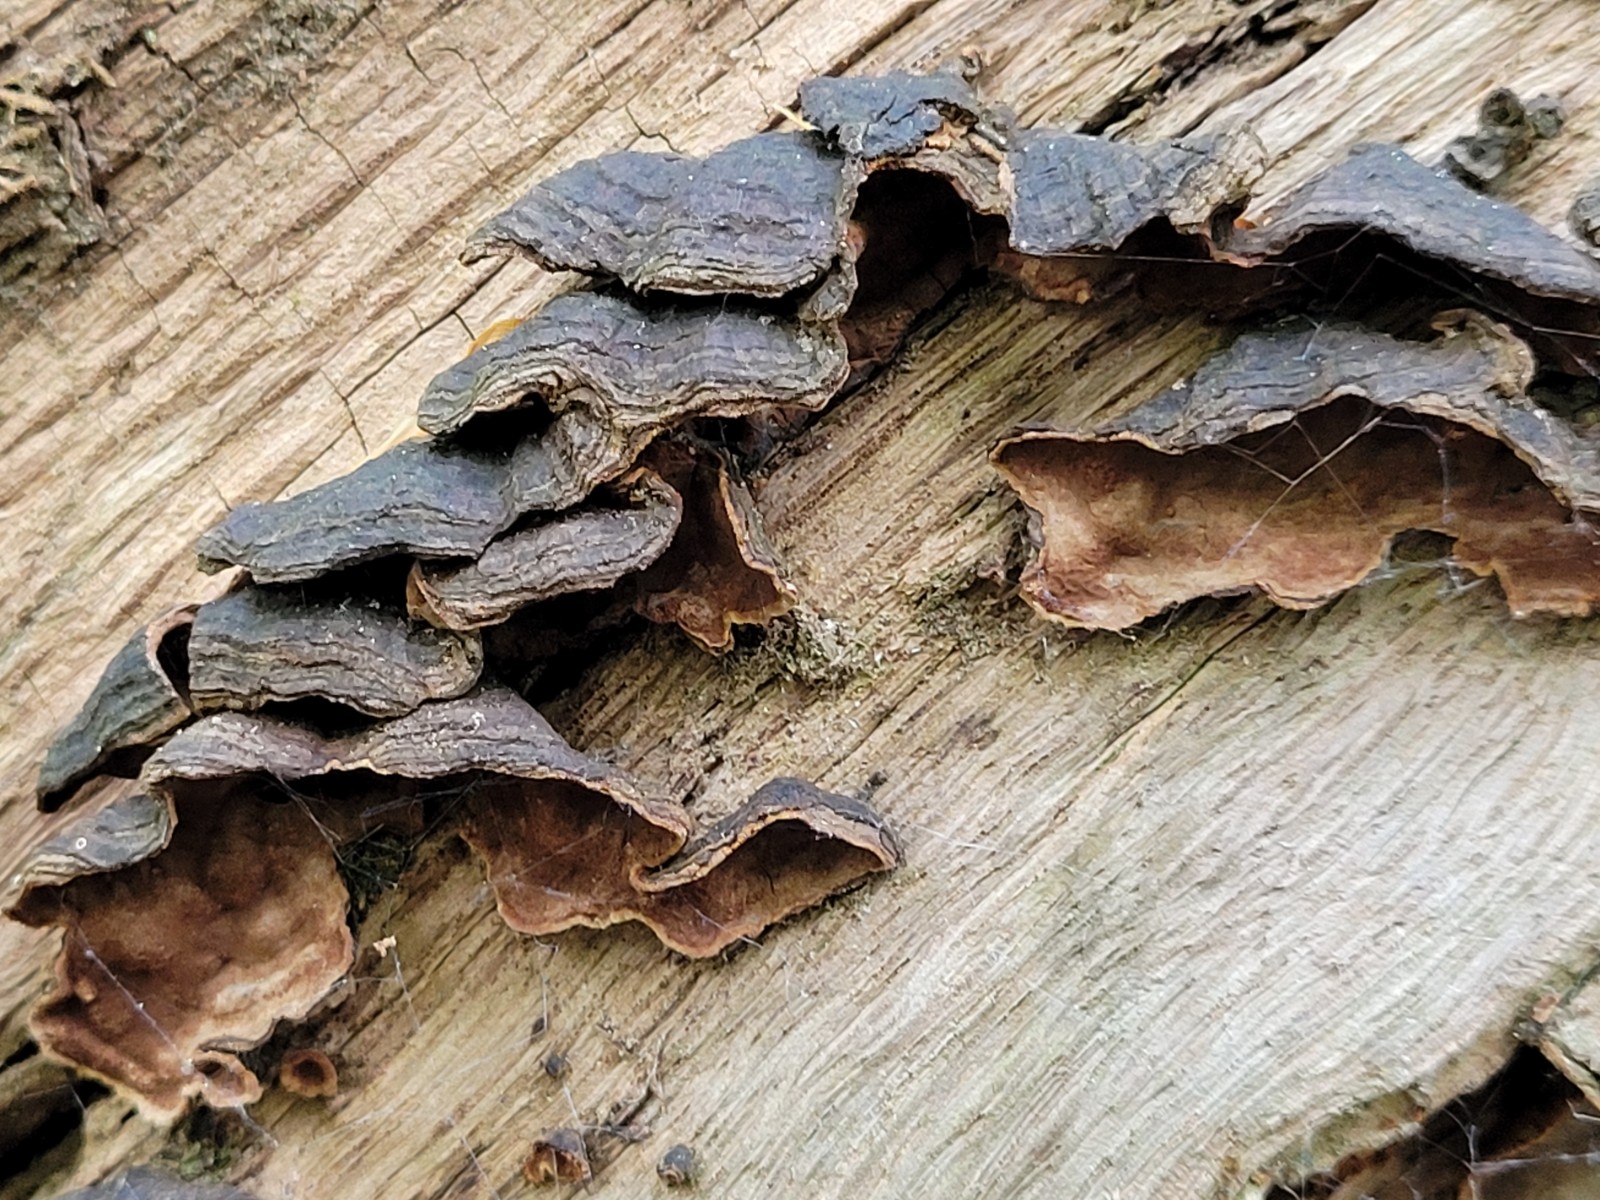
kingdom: Fungi
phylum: Basidiomycota
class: Agaricomycetes
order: Hymenochaetales
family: Hymenochaetaceae
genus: Hymenochaete
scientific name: Hymenochaete rubiginosa
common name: stiv ruslædersvamp
